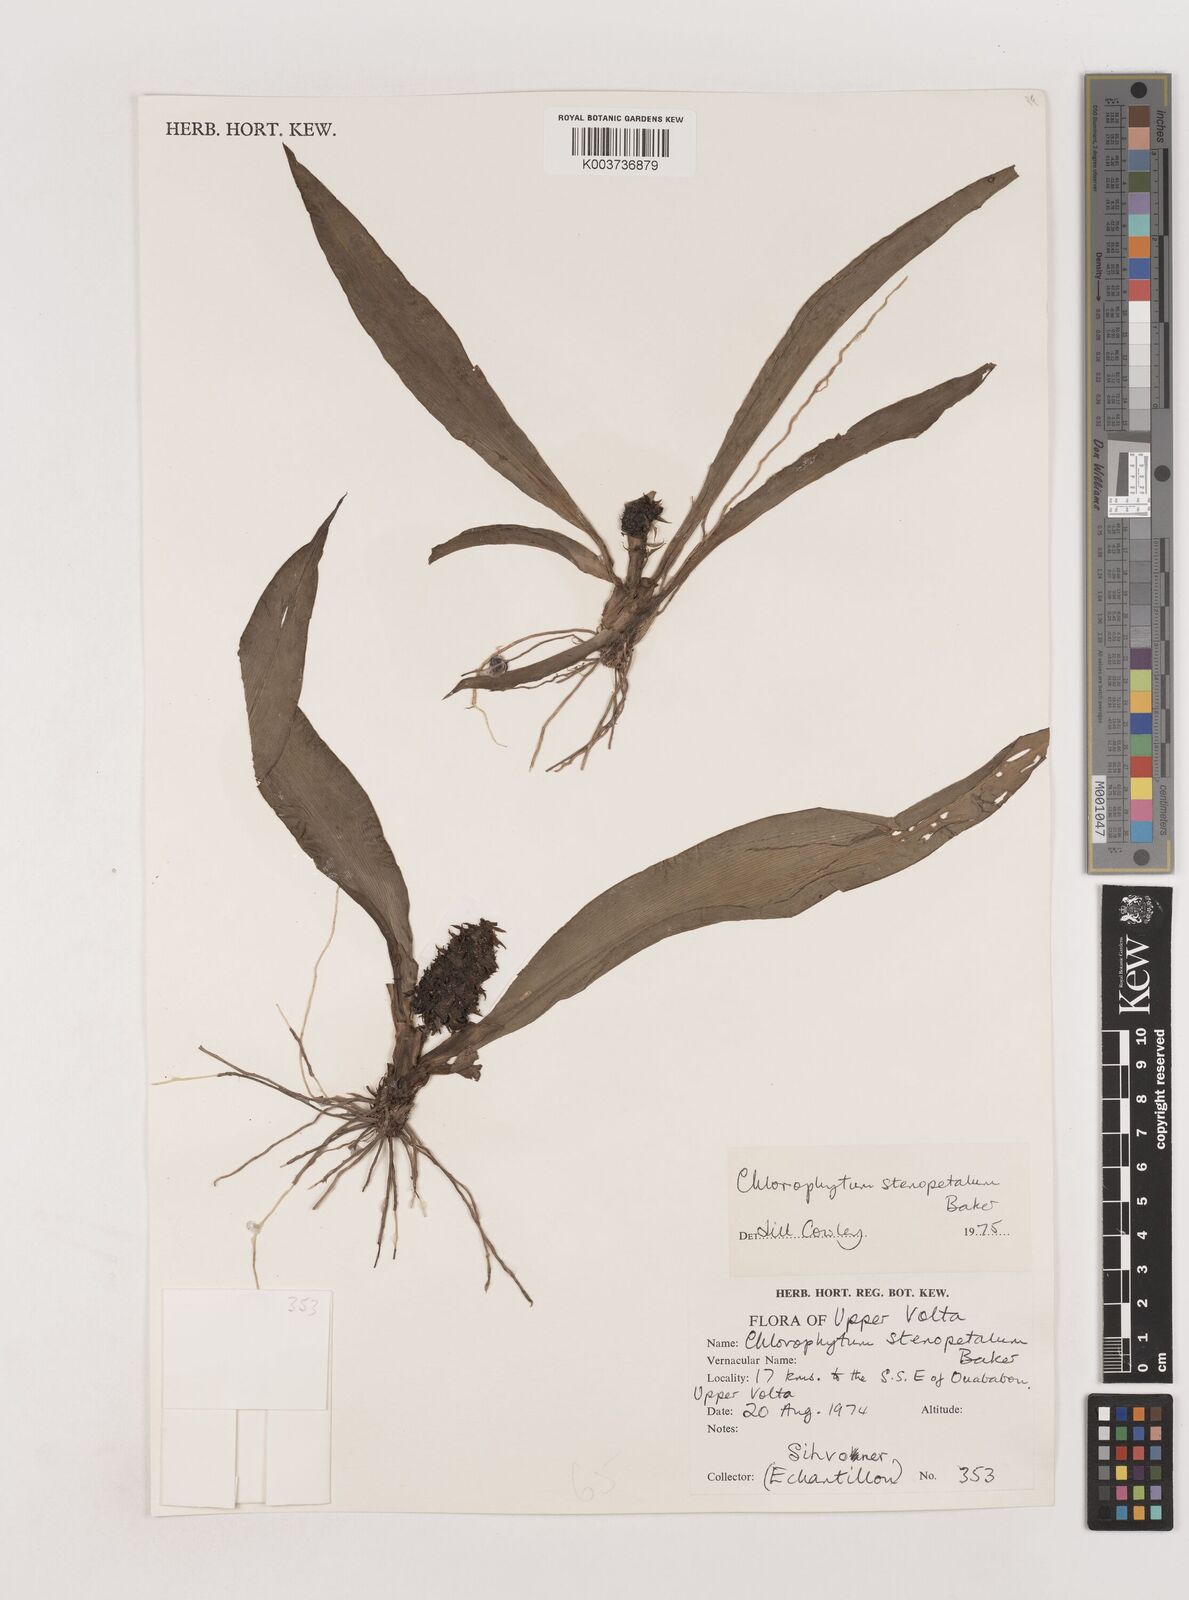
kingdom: Plantae
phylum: Tracheophyta
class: Liliopsida
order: Asparagales
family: Asparagaceae
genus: Chlorophytum
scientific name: Chlorophytum stenopetalum
